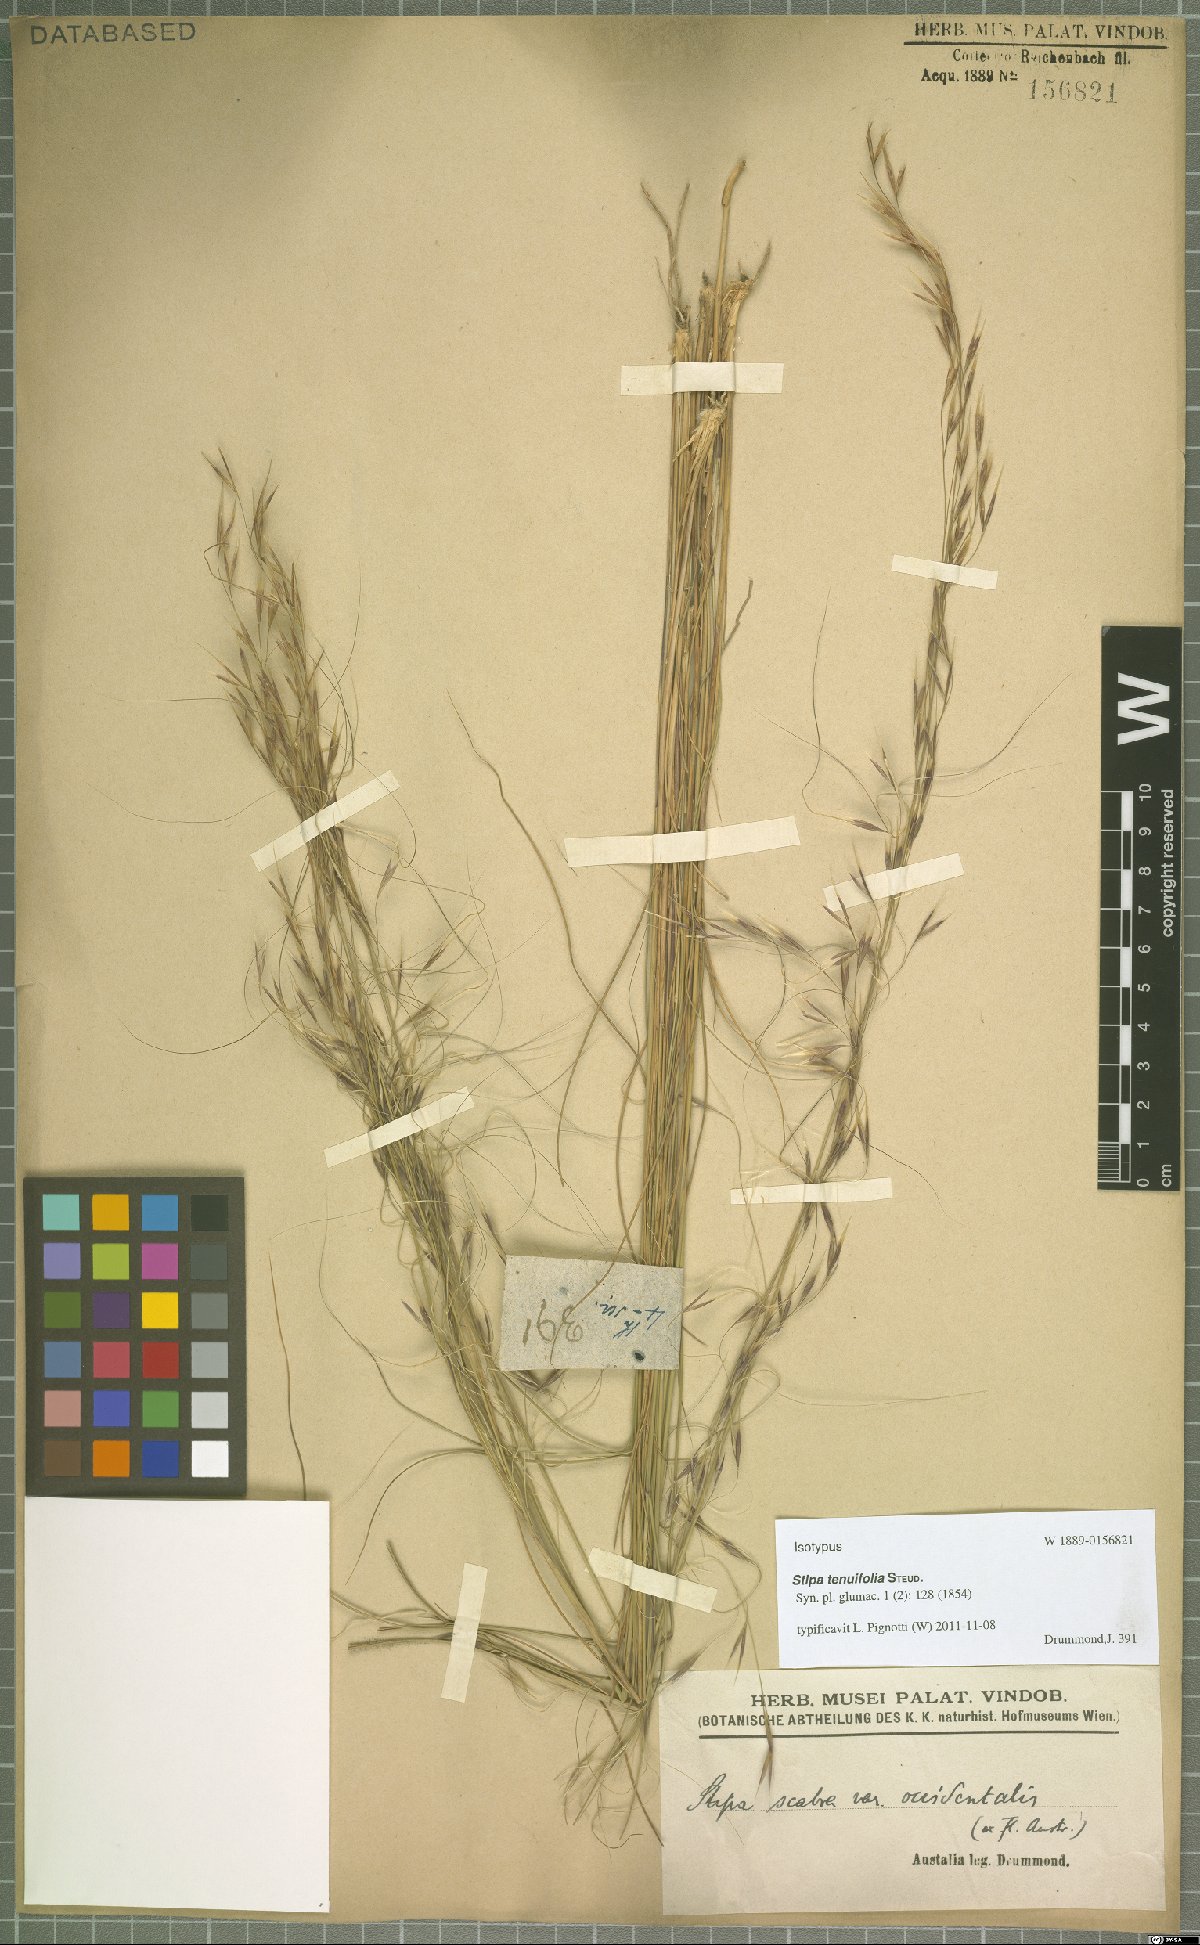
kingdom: Plantae
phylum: Tracheophyta
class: Liliopsida
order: Poales
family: Poaceae
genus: Austrostipa
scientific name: Austrostipa scabra
